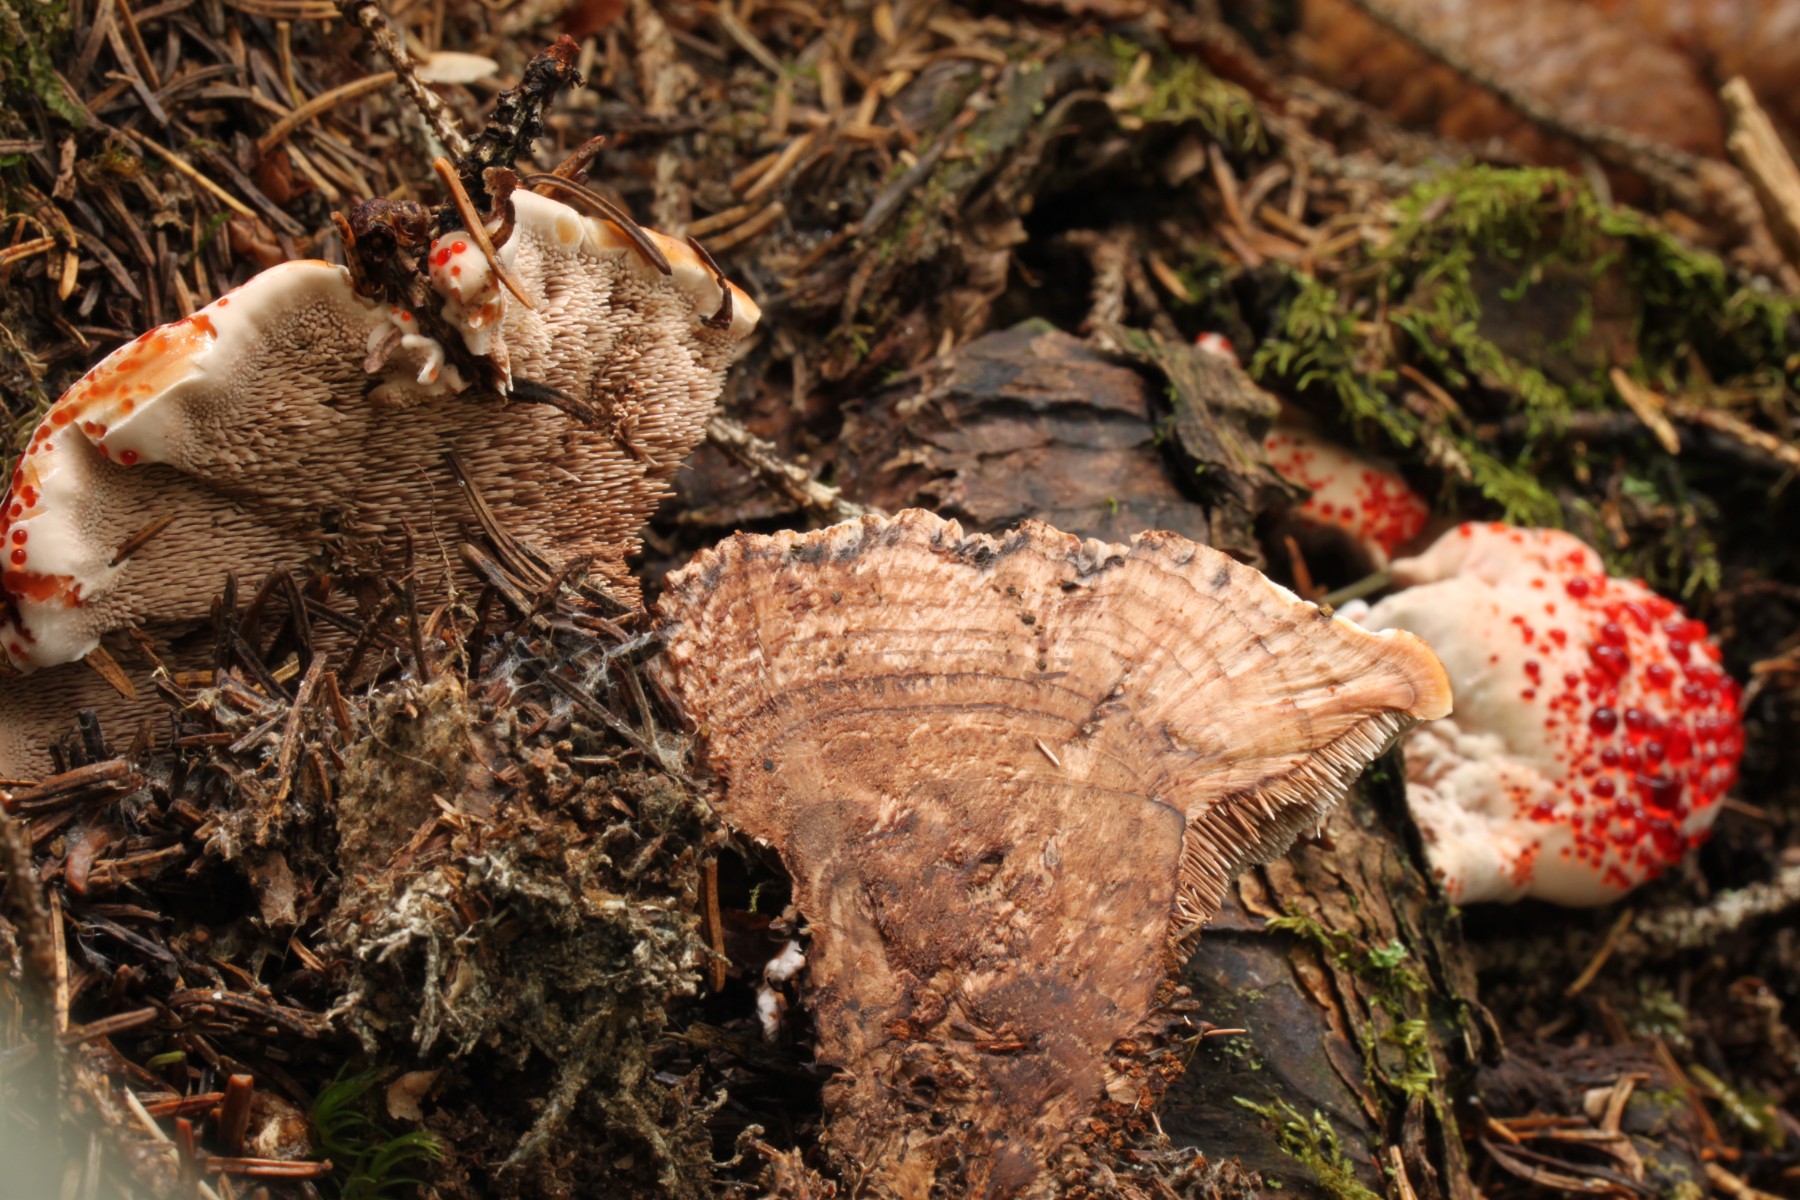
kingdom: Fungi
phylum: Basidiomycota
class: Agaricomycetes
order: Thelephorales
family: Bankeraceae
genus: Hydnellum
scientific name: Hydnellum peckii
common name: bitter korkpigsvamp
